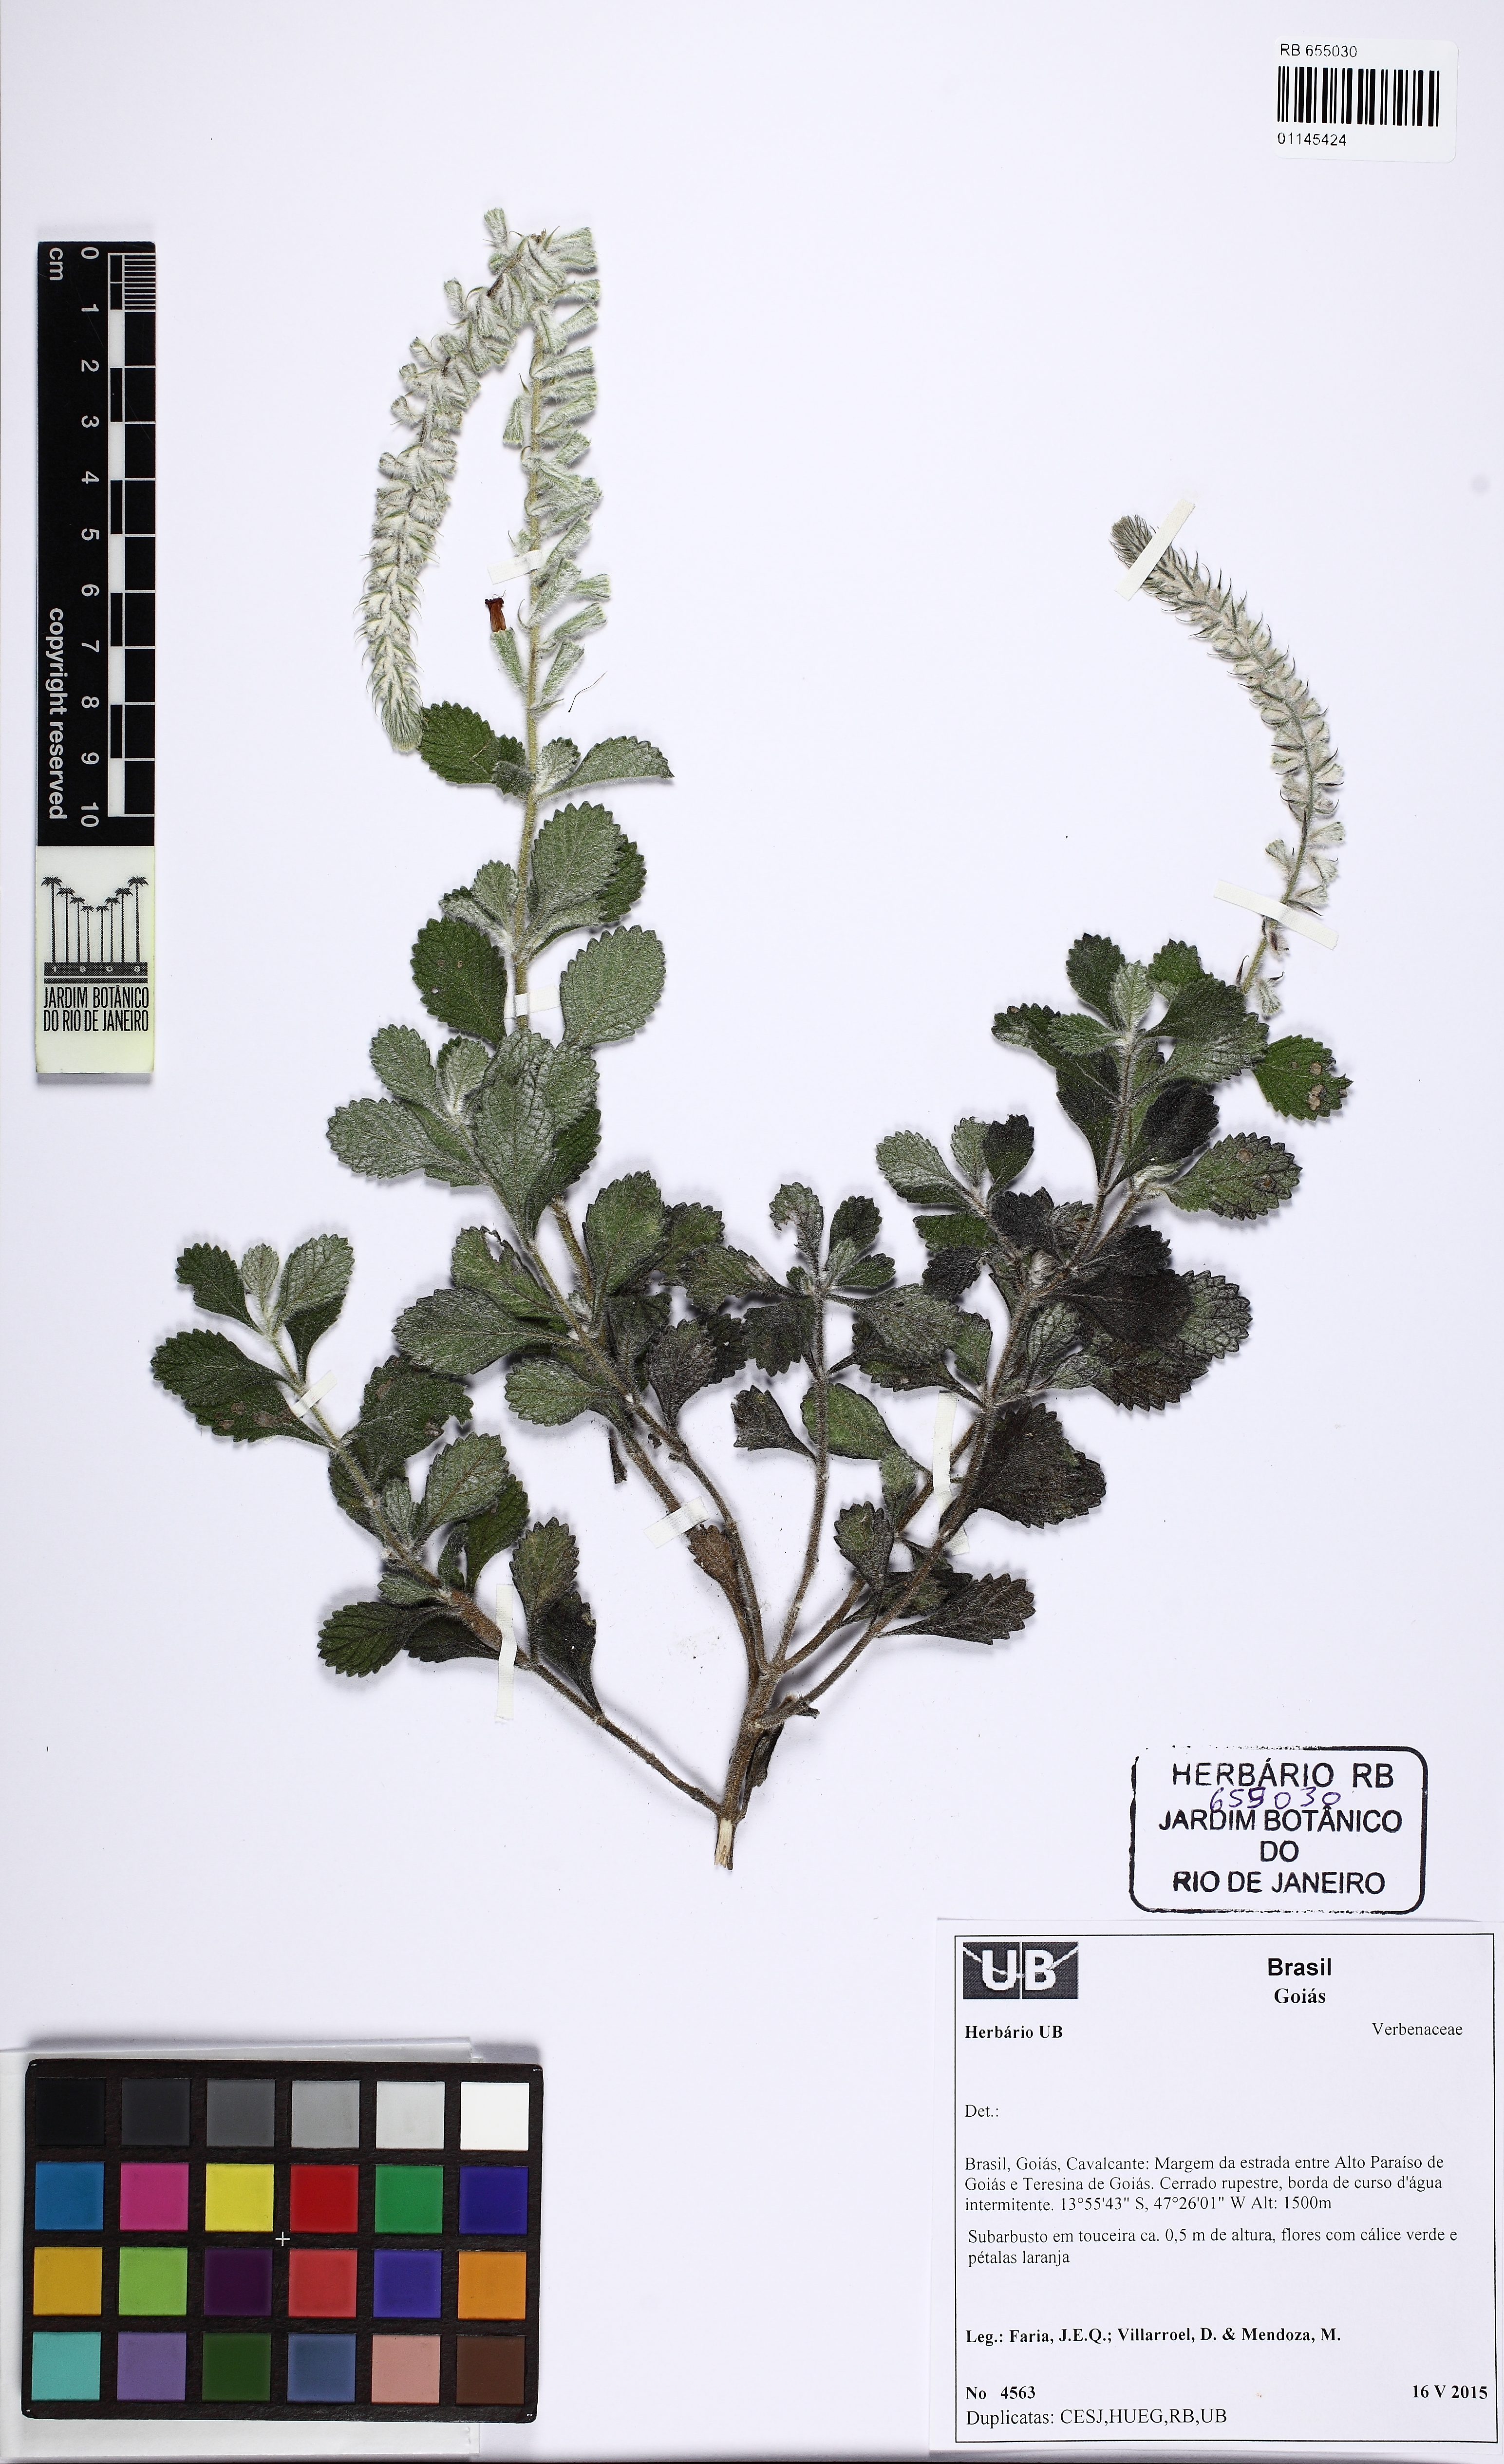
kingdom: Plantae
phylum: Tracheophyta
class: Magnoliopsida
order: Lamiales
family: Verbenaceae
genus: Stachytarpheta
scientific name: Stachytarpheta longispicata
